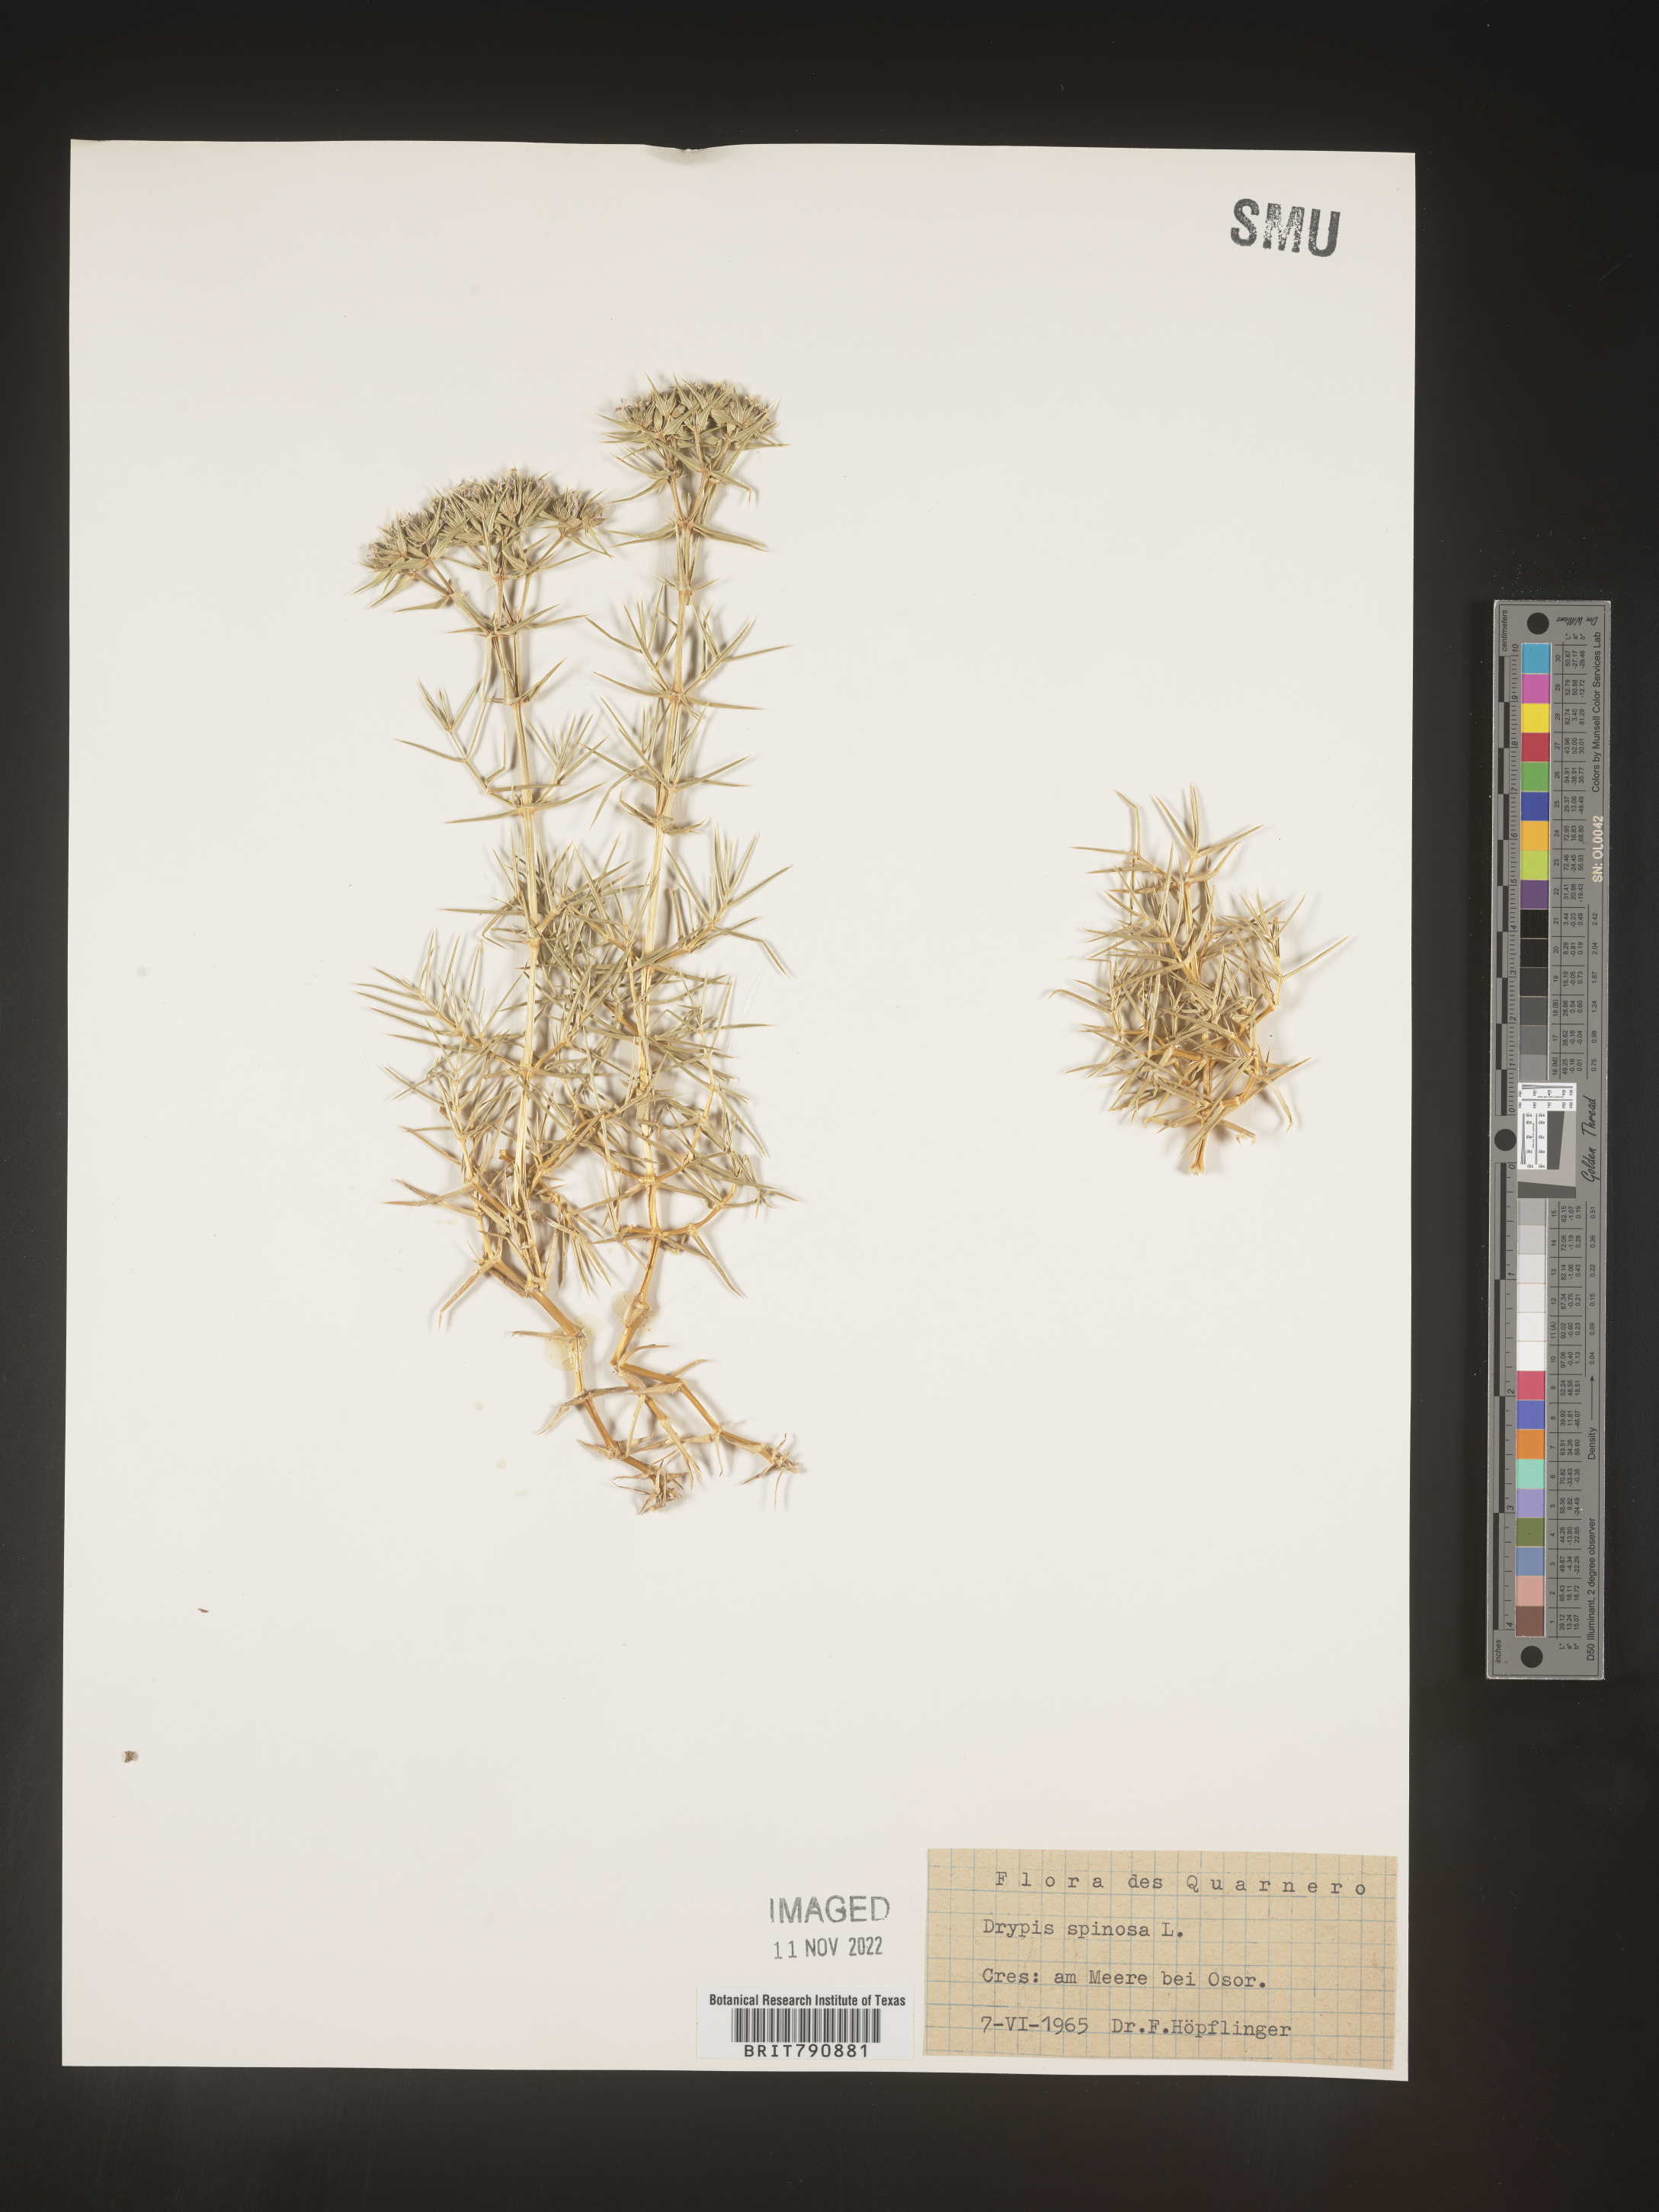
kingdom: Plantae
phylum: Tracheophyta
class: Magnoliopsida
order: Caryophyllales
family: Caryophyllaceae
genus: Drypis
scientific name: Drypis
